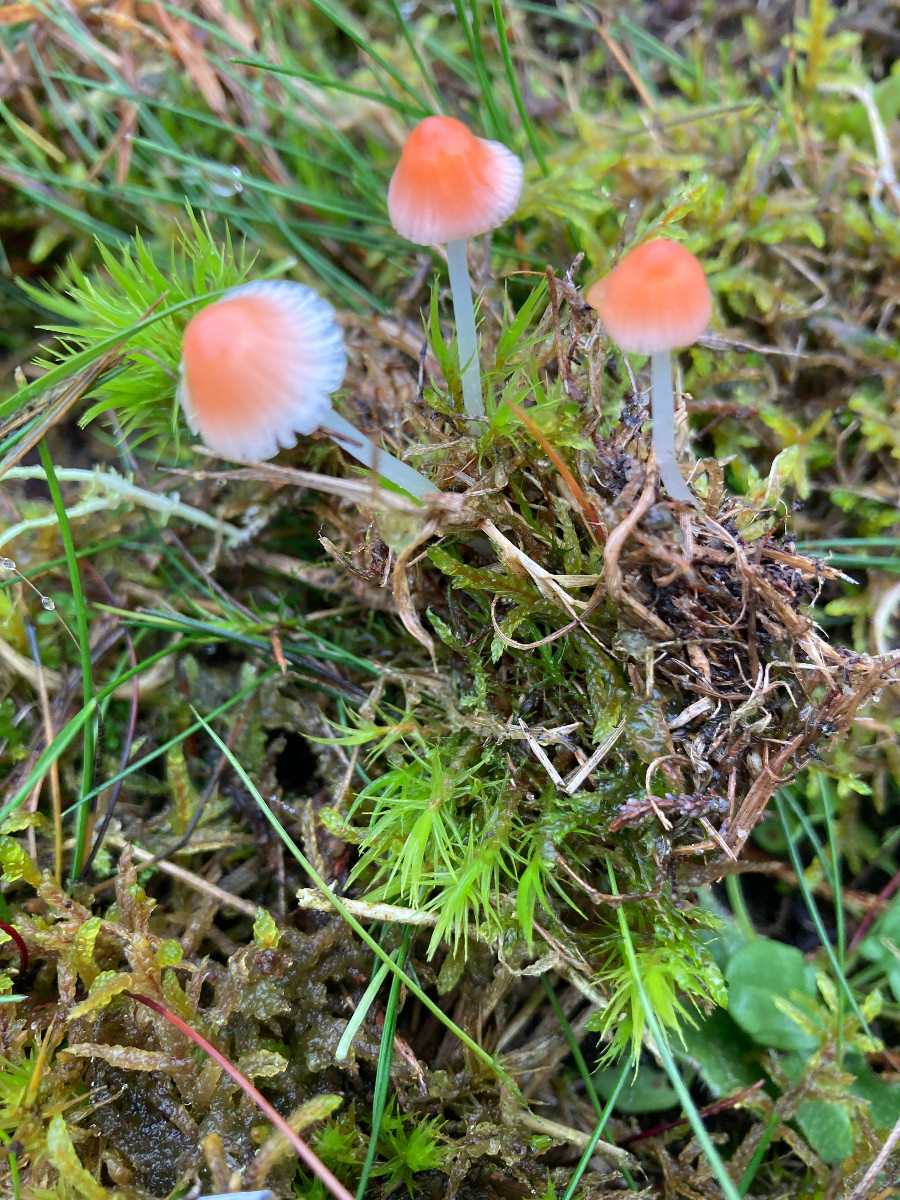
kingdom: Fungi
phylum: Basidiomycota
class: Agaricomycetes
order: Agaricales
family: Mycenaceae
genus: Atheniella
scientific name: Atheniella adonis
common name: rønnerød huesvamp
